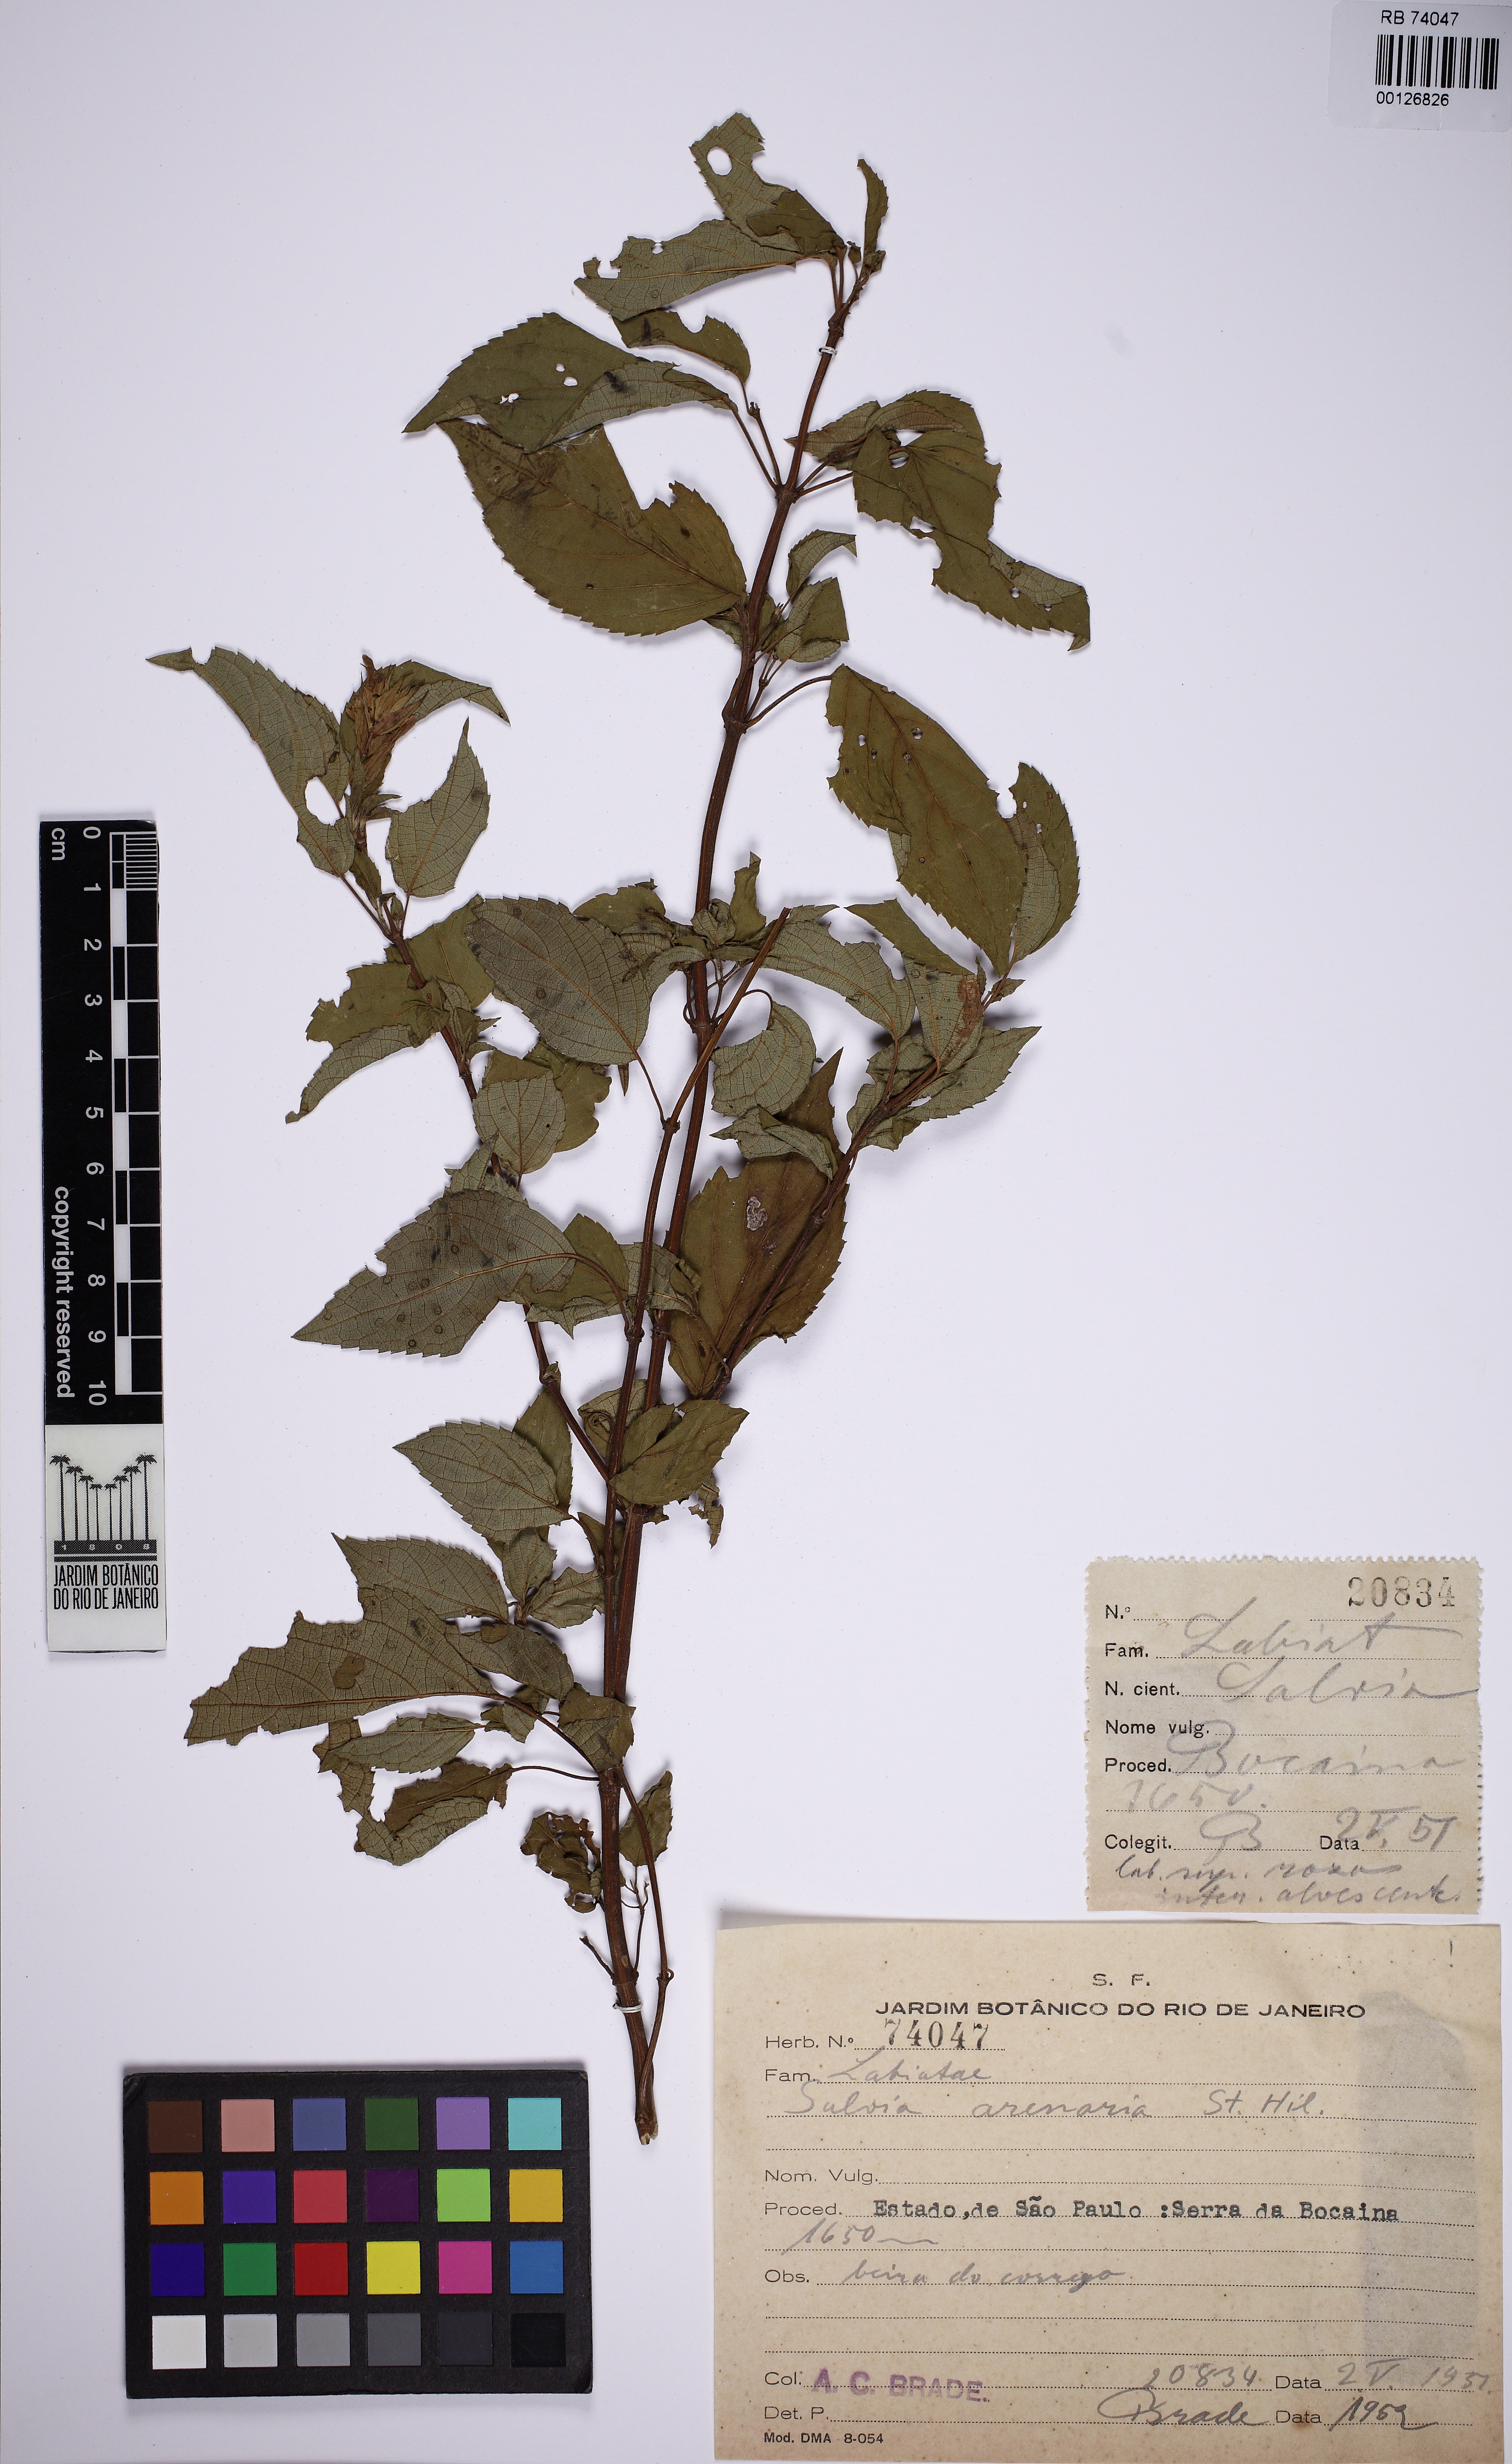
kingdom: Plantae
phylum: Tracheophyta
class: Magnoliopsida
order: Lamiales
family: Lamiaceae
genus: Salvia
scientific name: Salvia arenaria
